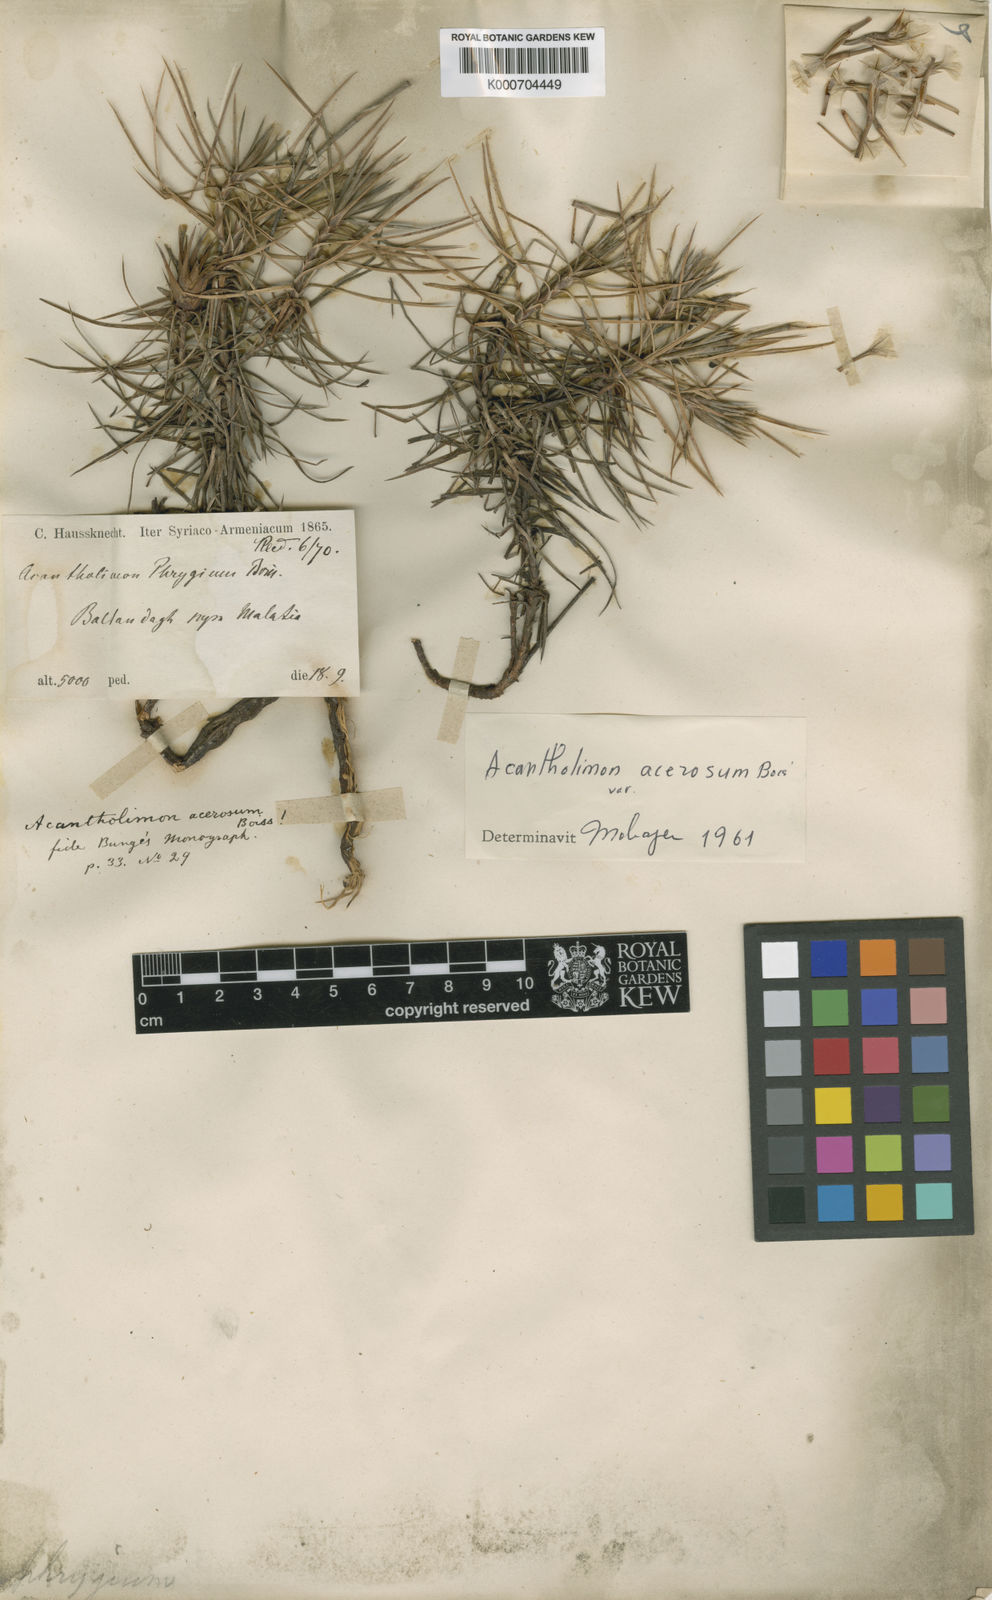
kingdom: Plantae
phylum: Tracheophyta
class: Magnoliopsida
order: Caryophyllales
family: Plumbaginaceae
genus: Acantholimon
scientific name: Acantholimon acerosum
